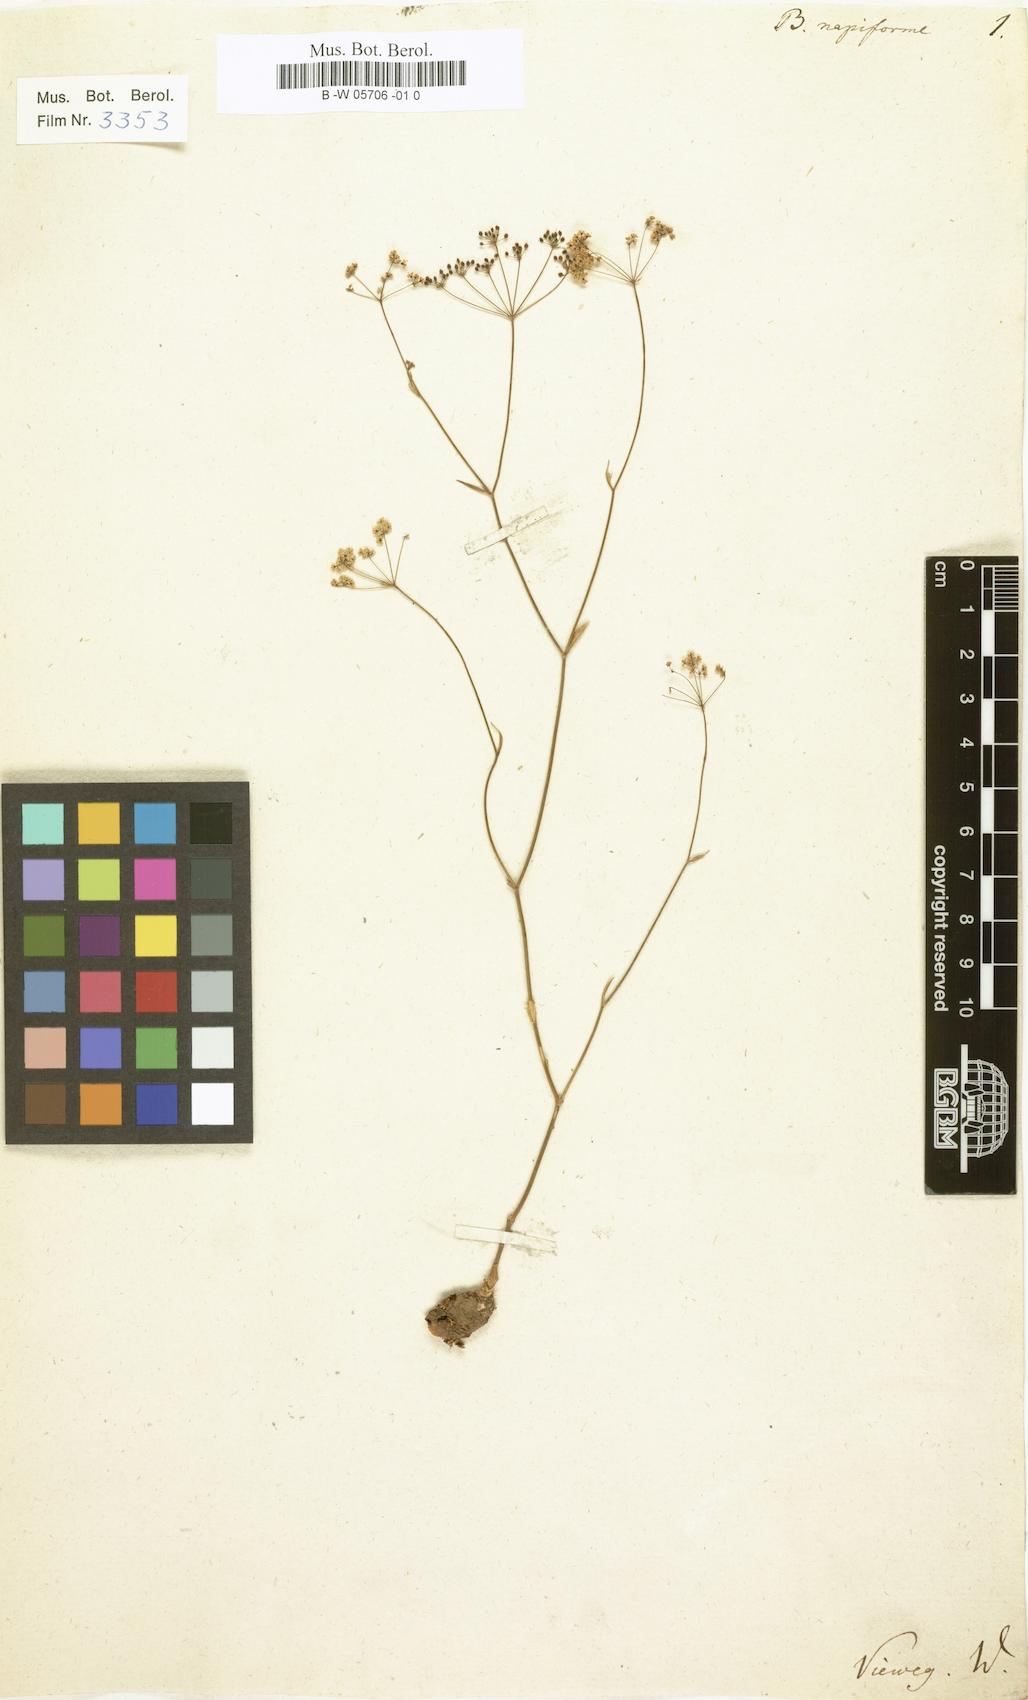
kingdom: Plantae
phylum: Tracheophyta
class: Magnoliopsida
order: Apiales
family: Apiaceae
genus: Scaligeria
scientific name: Scaligeria napiformis
